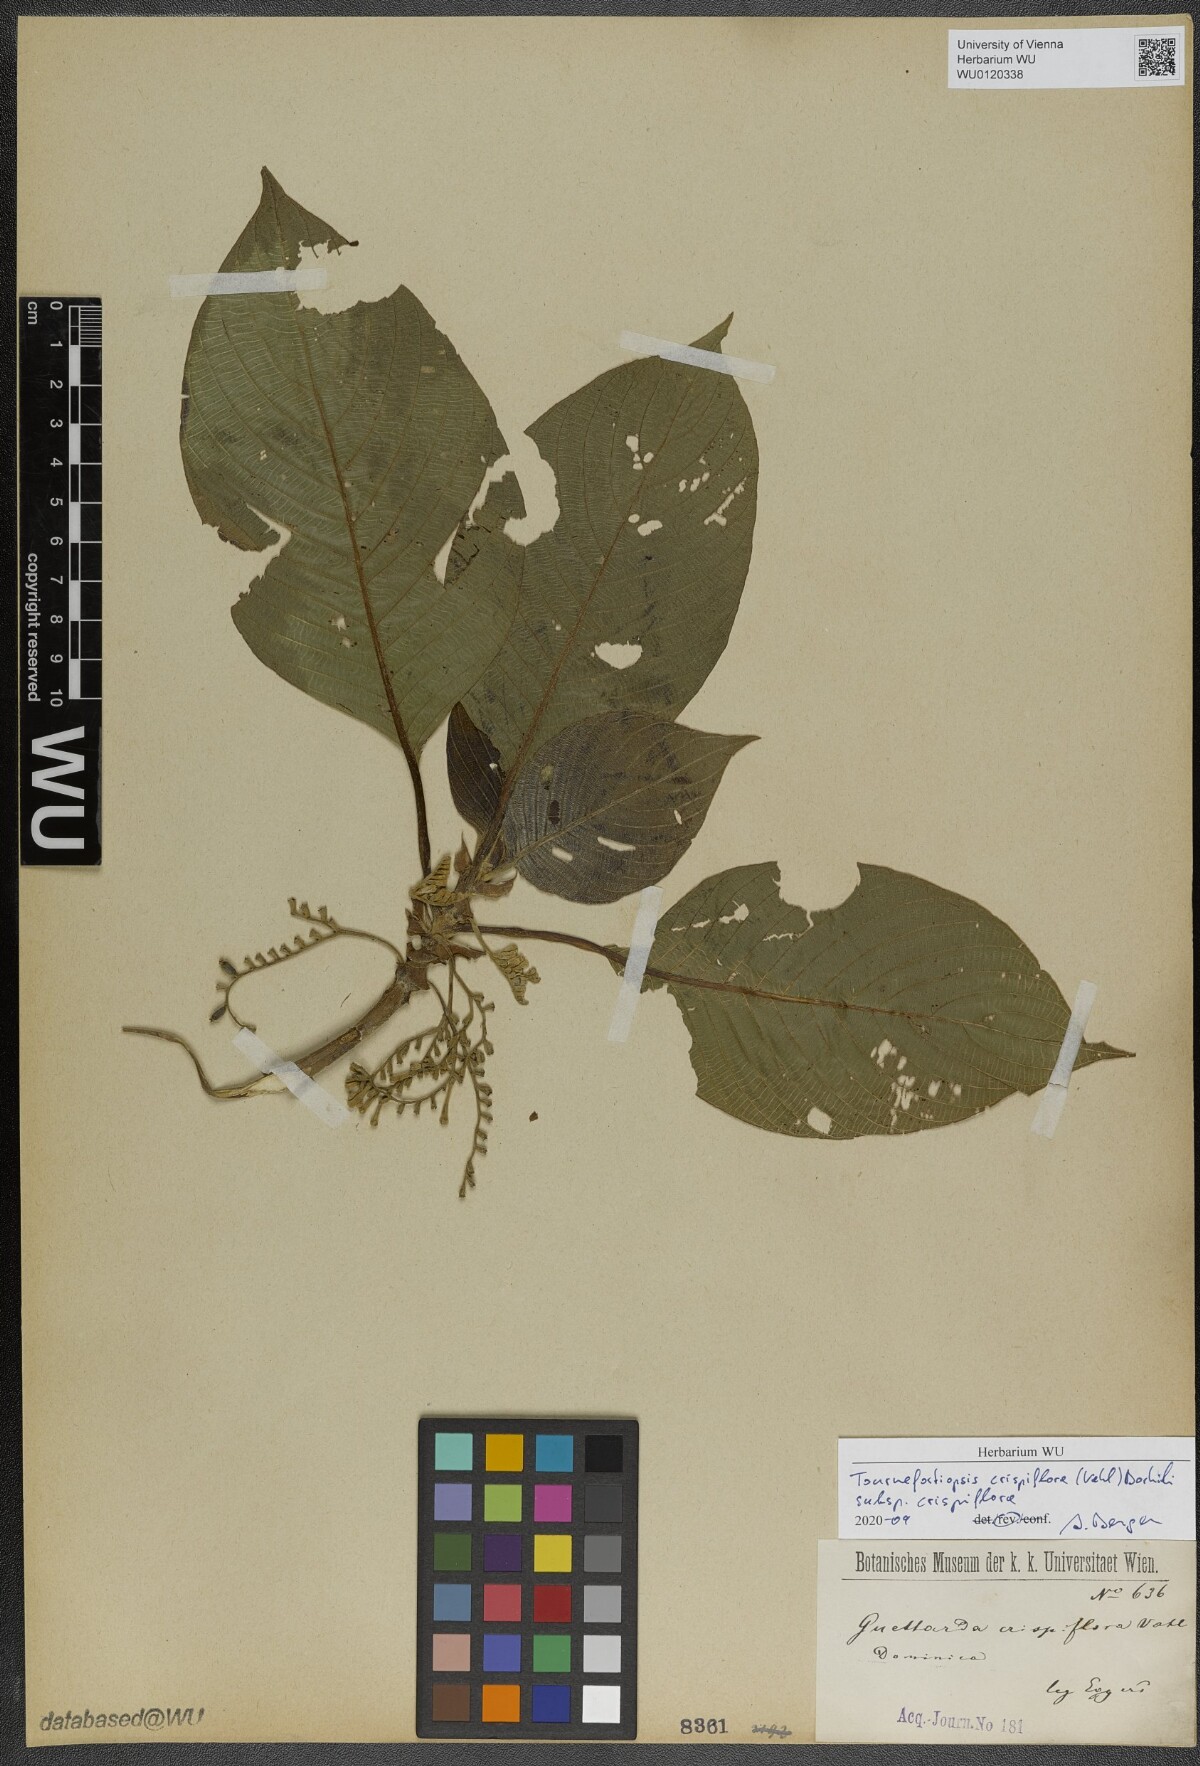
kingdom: Plantae
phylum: Tracheophyta
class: Magnoliopsida
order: Gentianales
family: Rubiaceae
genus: Tournefortiopsis
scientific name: Tournefortiopsis crispiflora
